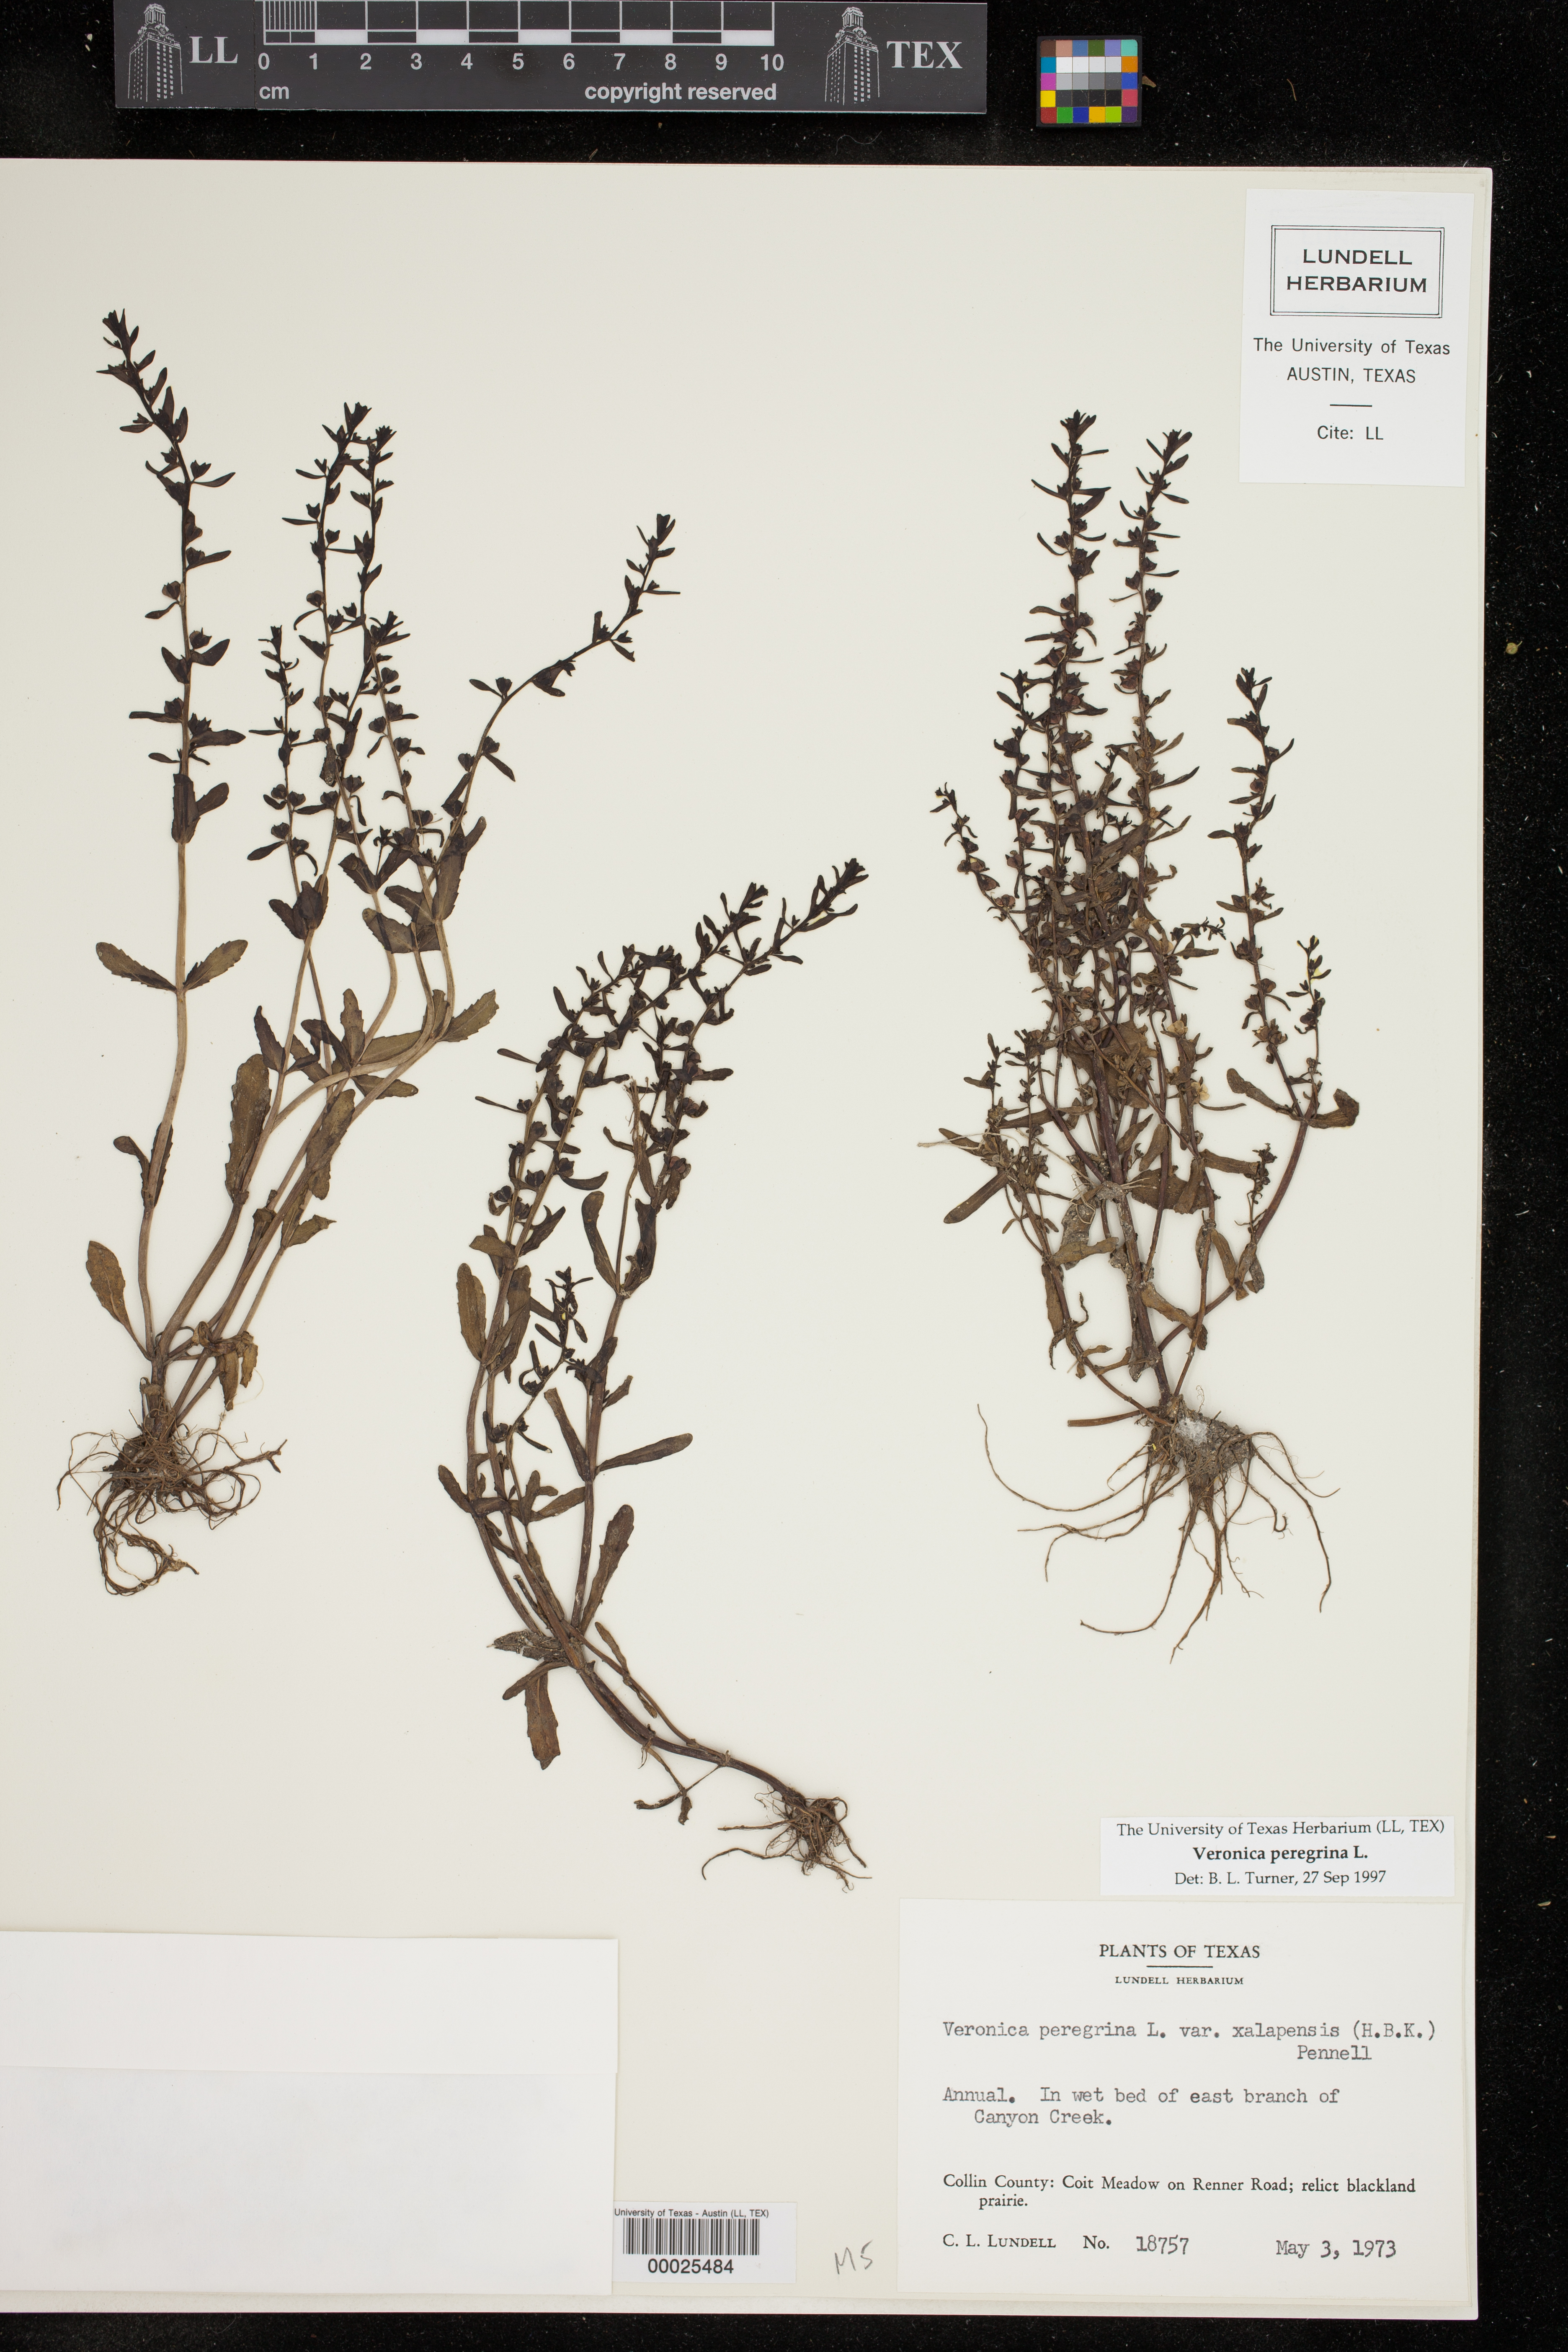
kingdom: Plantae
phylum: Tracheophyta
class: Magnoliopsida
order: Lamiales
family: Plantaginaceae
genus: Veronica
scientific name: Veronica peregrina
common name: Neckweed
